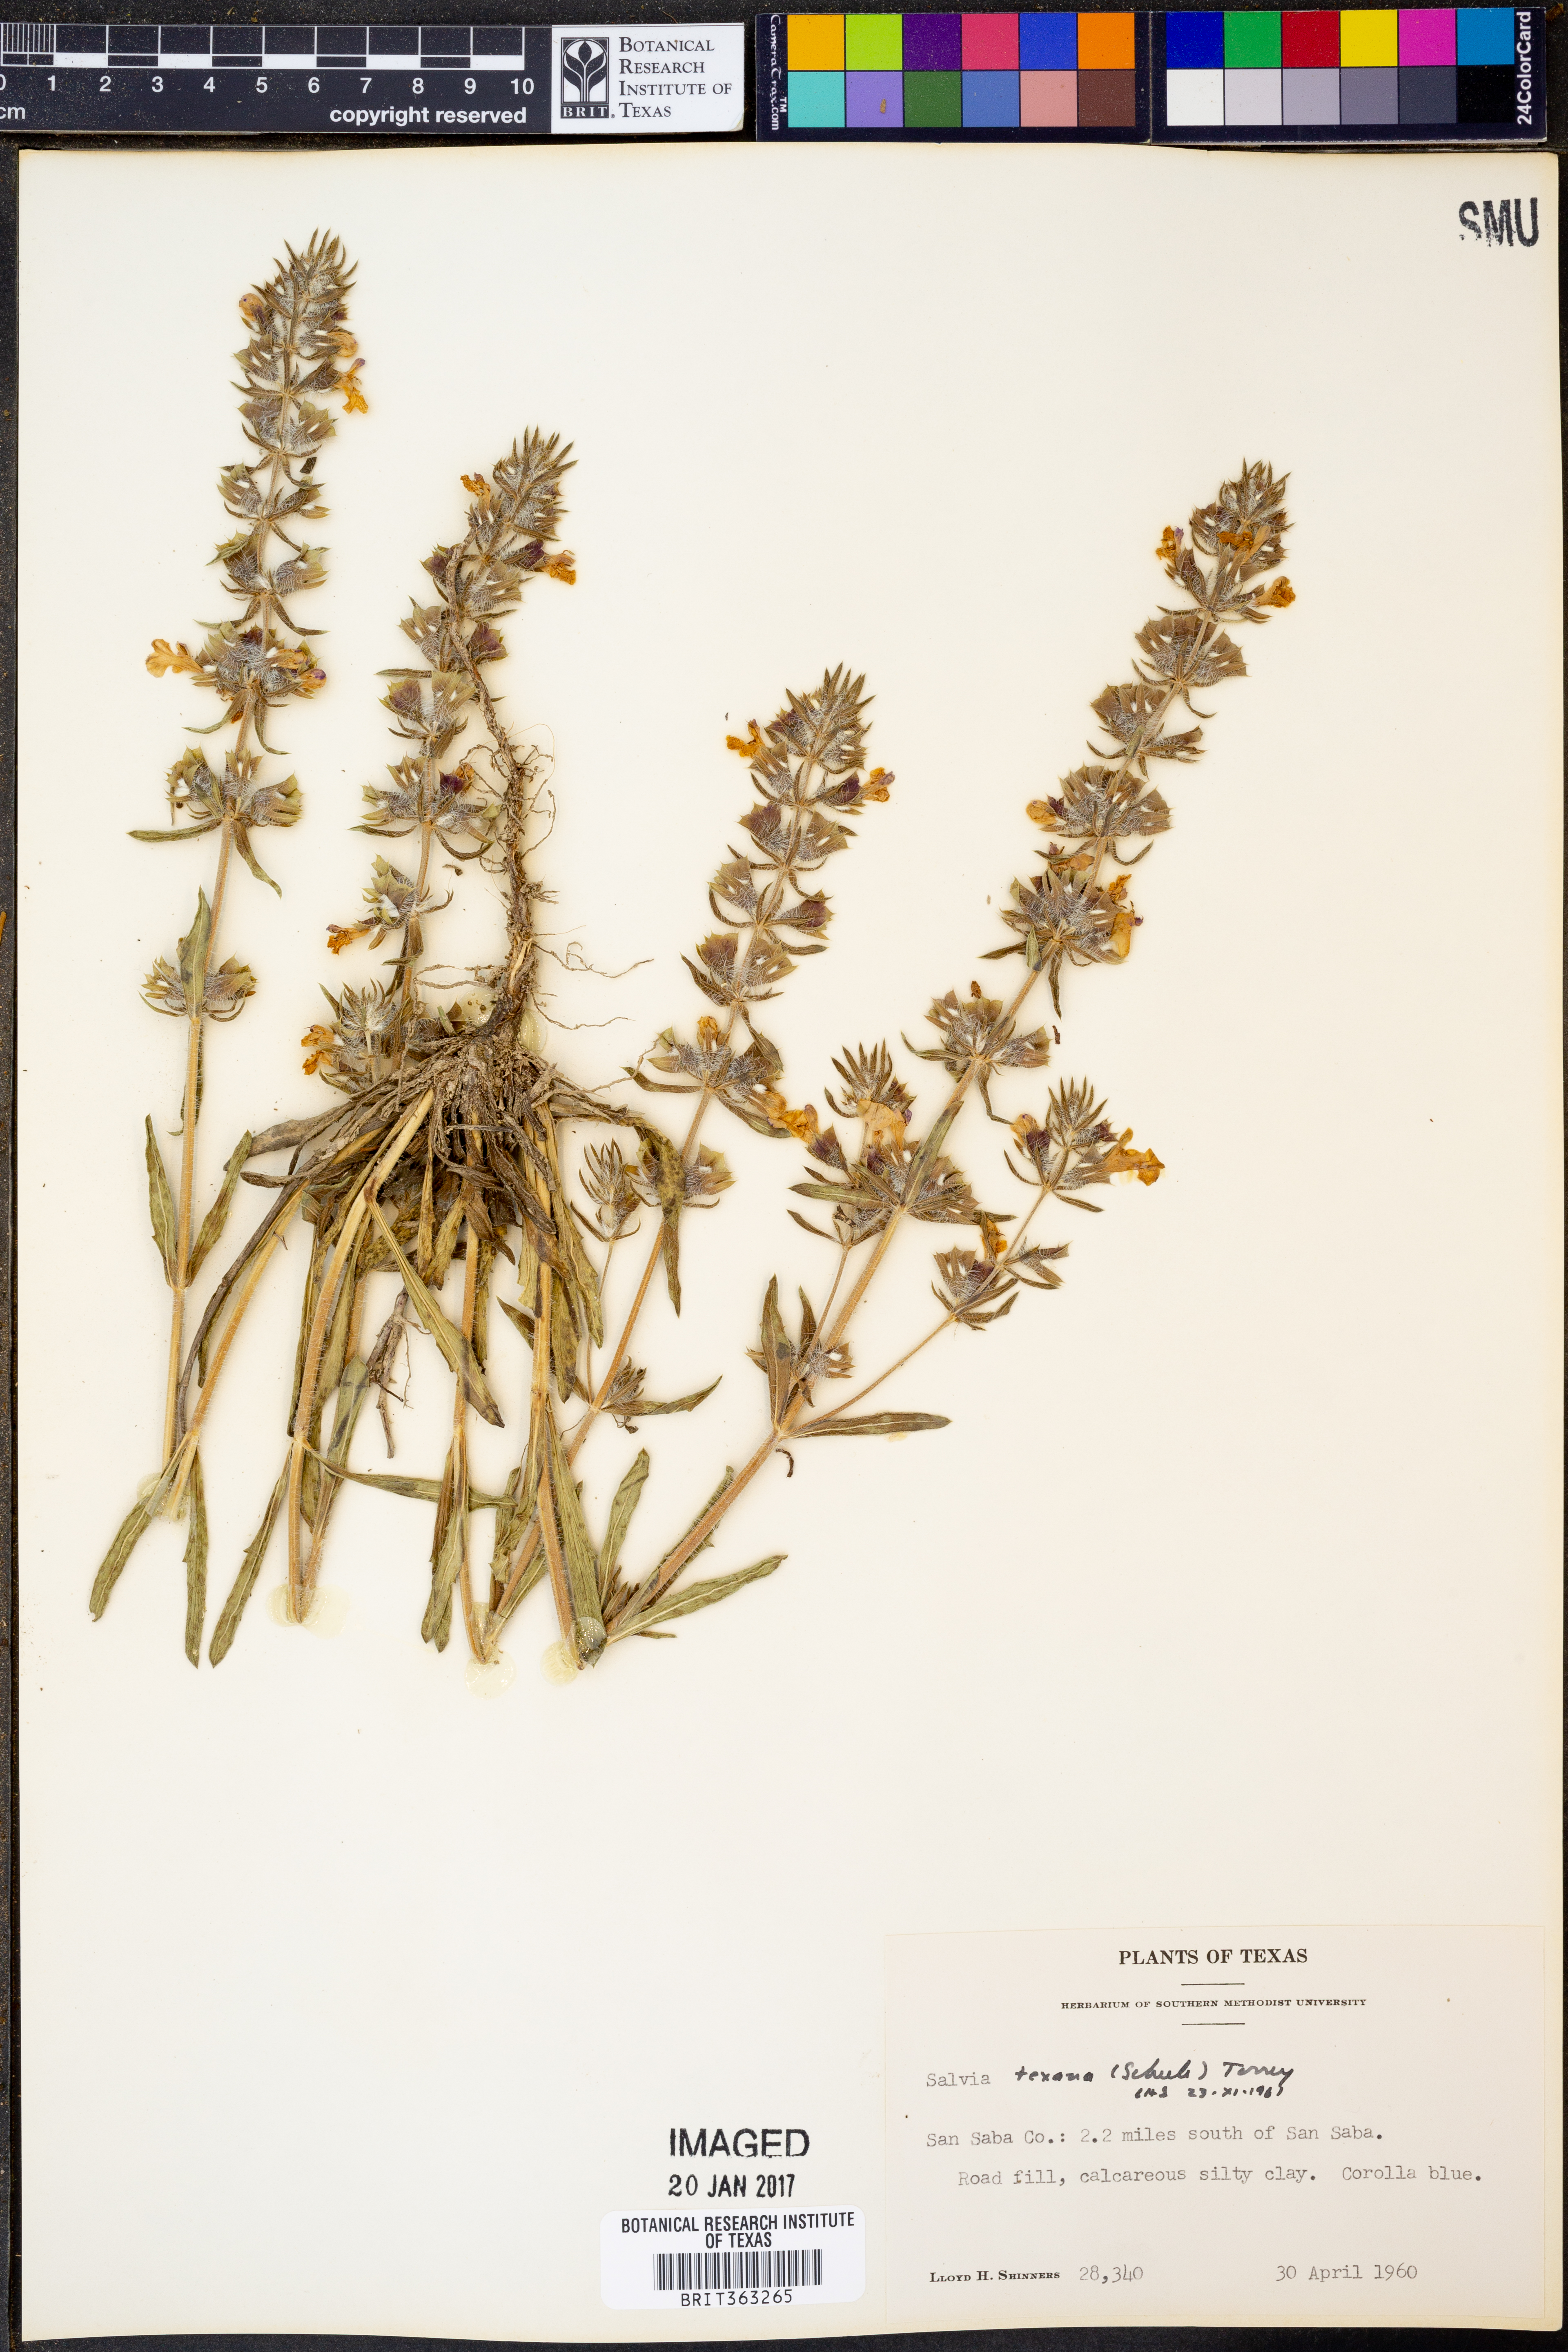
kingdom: Plantae
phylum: Tracheophyta
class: Magnoliopsida
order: Lamiales
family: Lamiaceae
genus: Salvia
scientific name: Salvia texana
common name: Texas sage
